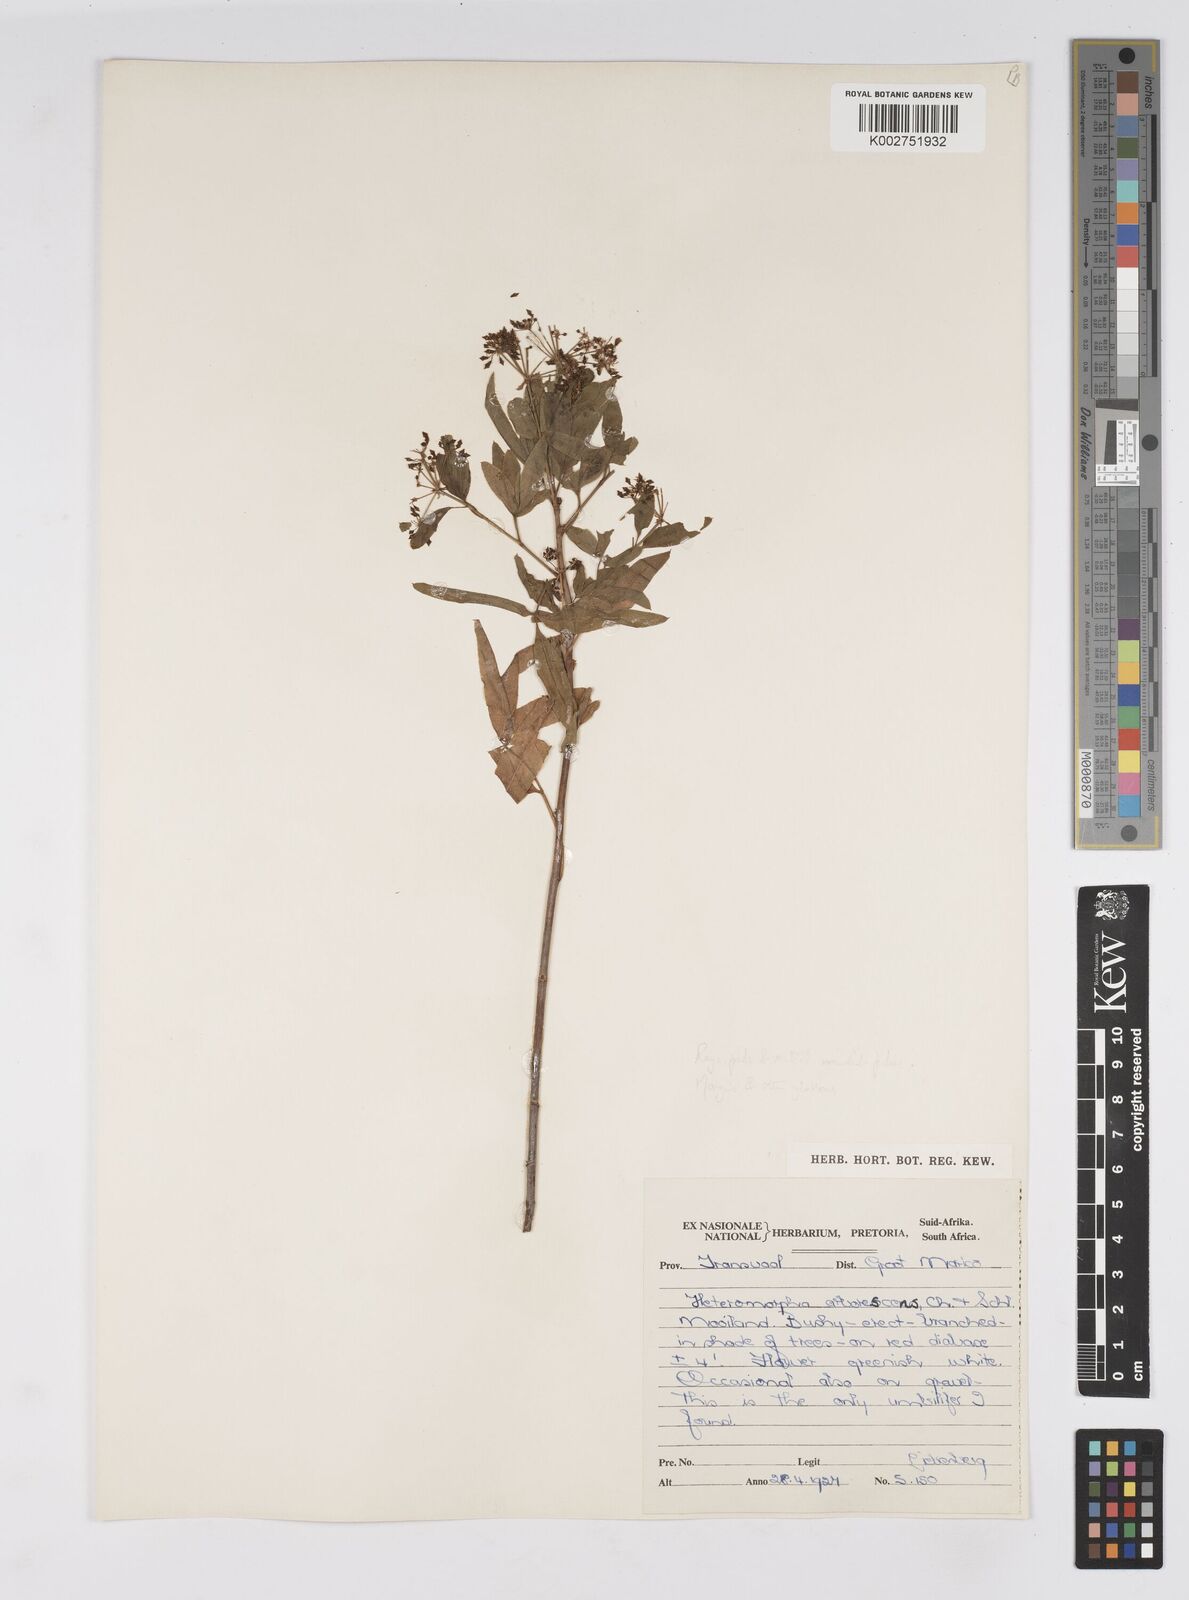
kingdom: Plantae
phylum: Tracheophyta
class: Magnoliopsida
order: Apiales
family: Apiaceae
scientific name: Apiaceae
